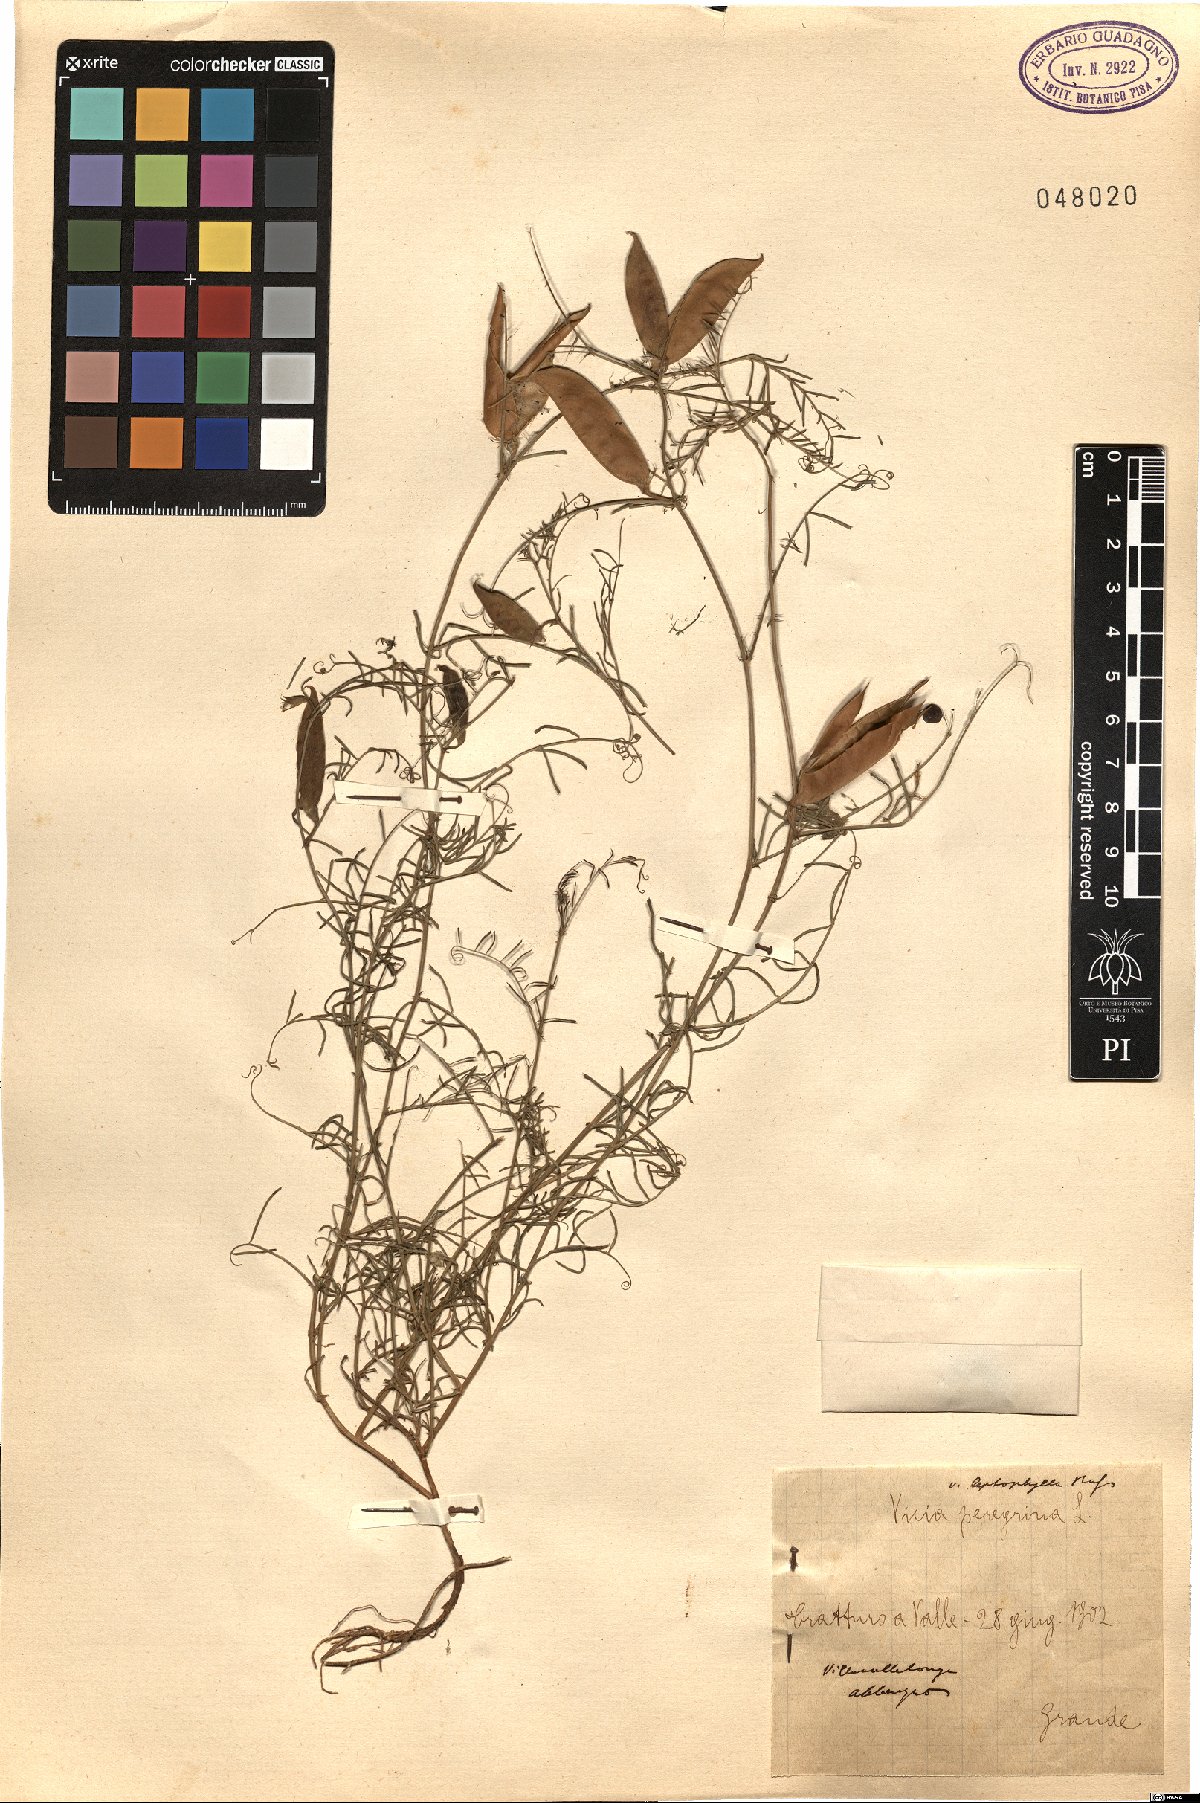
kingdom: Plantae
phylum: Tracheophyta
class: Magnoliopsida
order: Fabales
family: Fabaceae
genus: Vicia
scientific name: Vicia peregrina
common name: Broad-pod vetch
